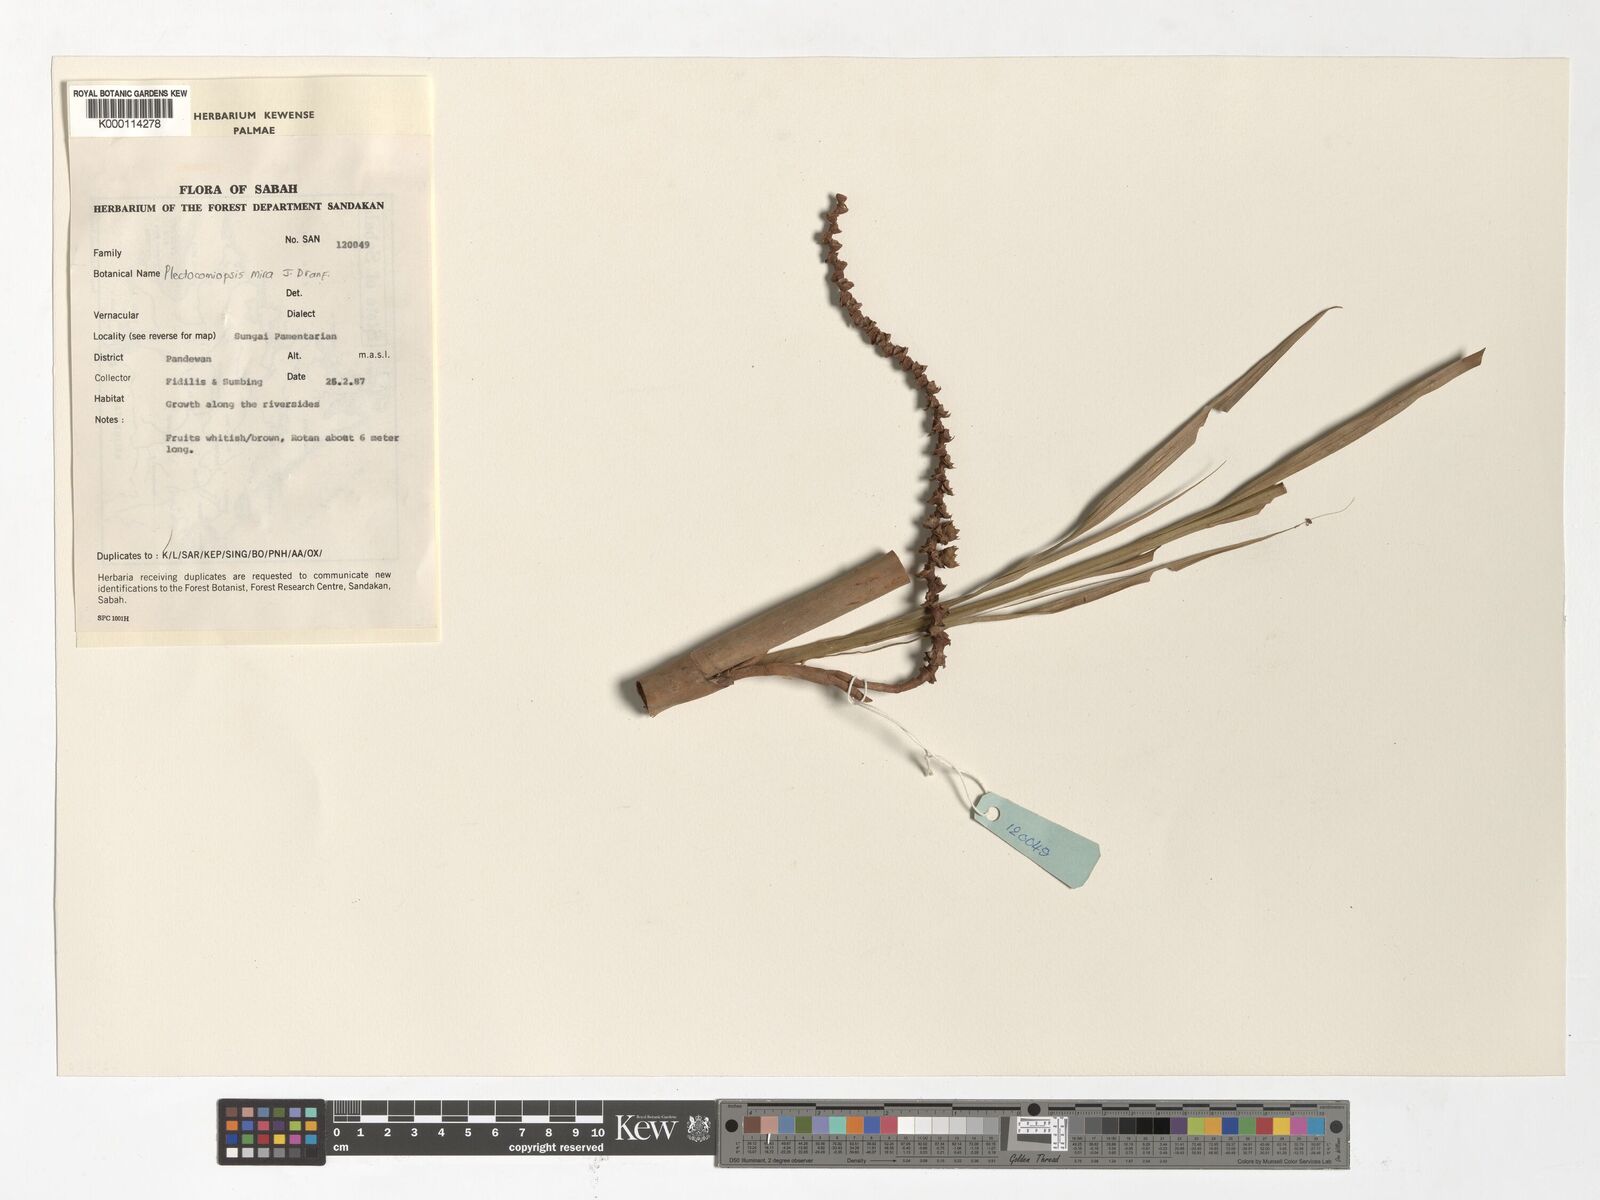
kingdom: Plantae
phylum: Tracheophyta
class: Liliopsida
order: Arecales
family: Arecaceae
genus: Plectocomiopsis
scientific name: Plectocomiopsis mira
